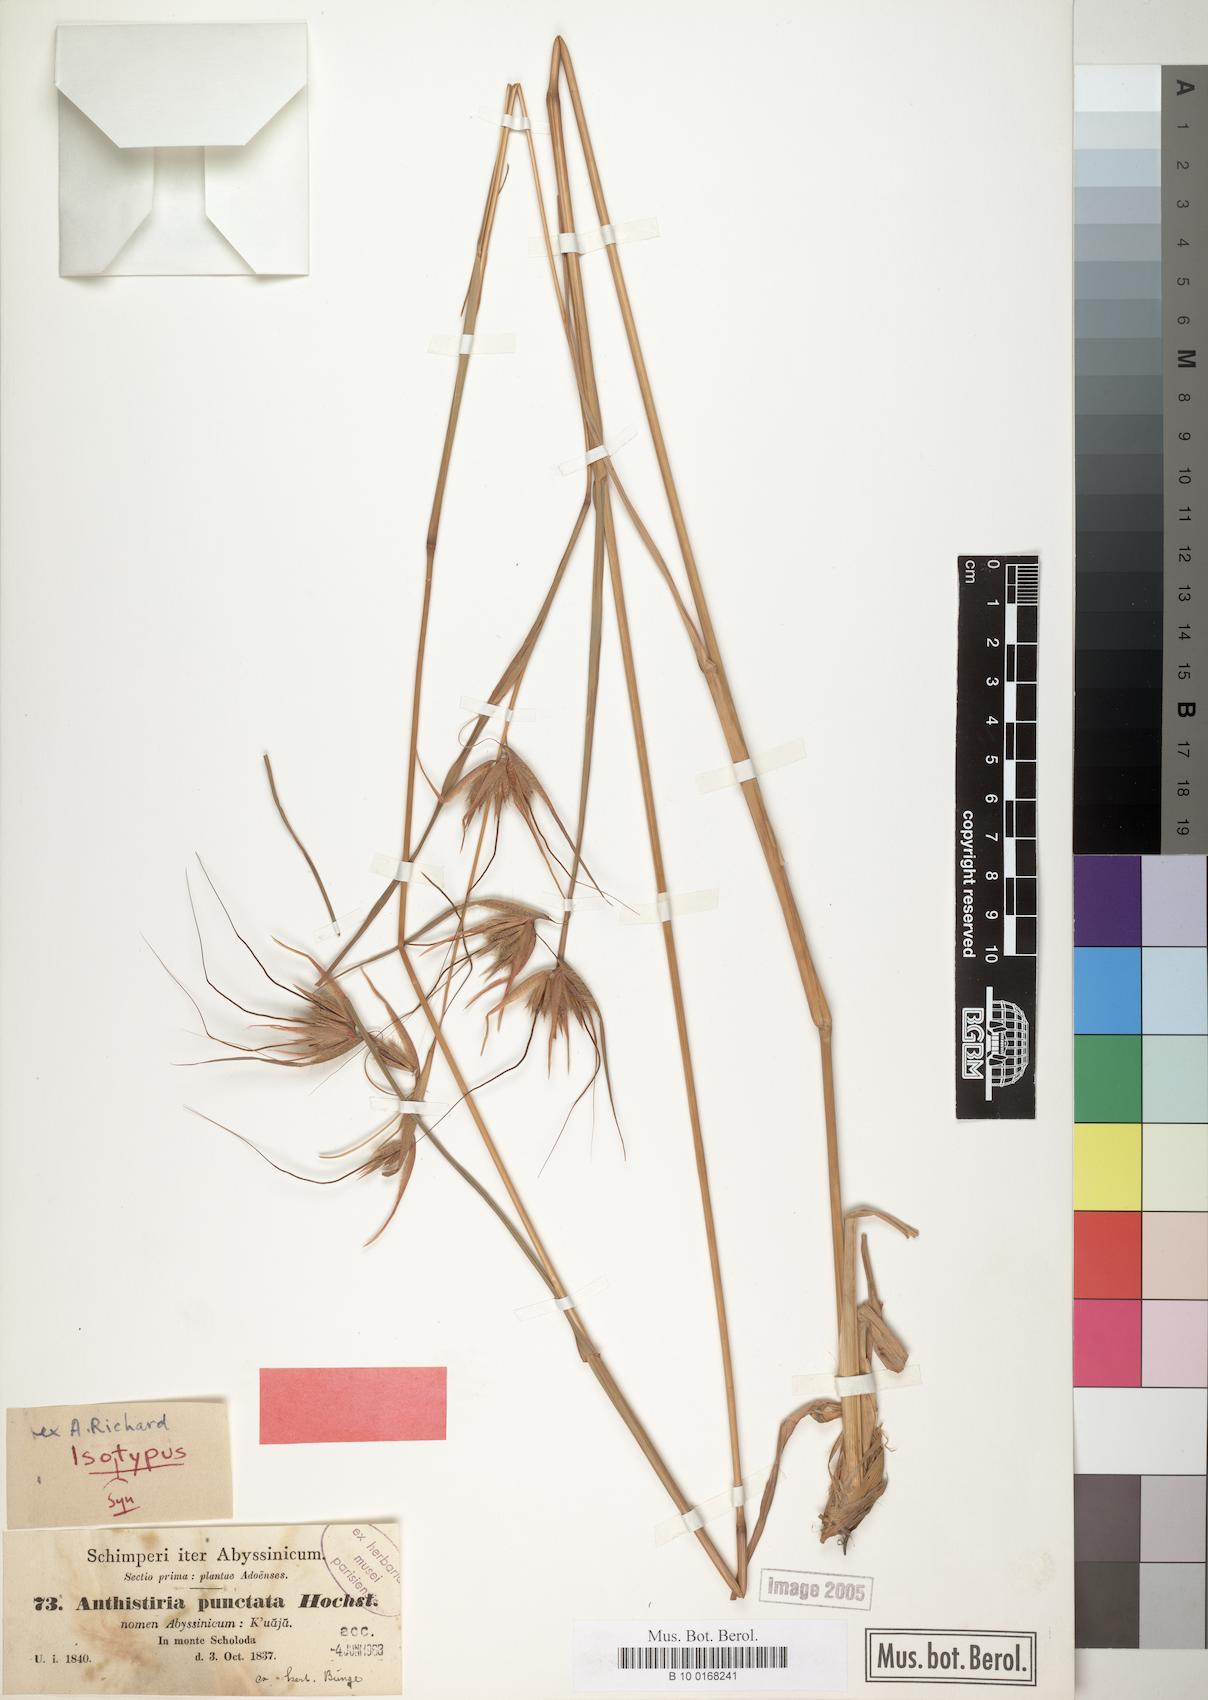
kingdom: Plantae
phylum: Tracheophyta
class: Liliopsida
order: Poales
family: Poaceae
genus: Themeda
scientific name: Themeda triandra
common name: Kangaroo grass
